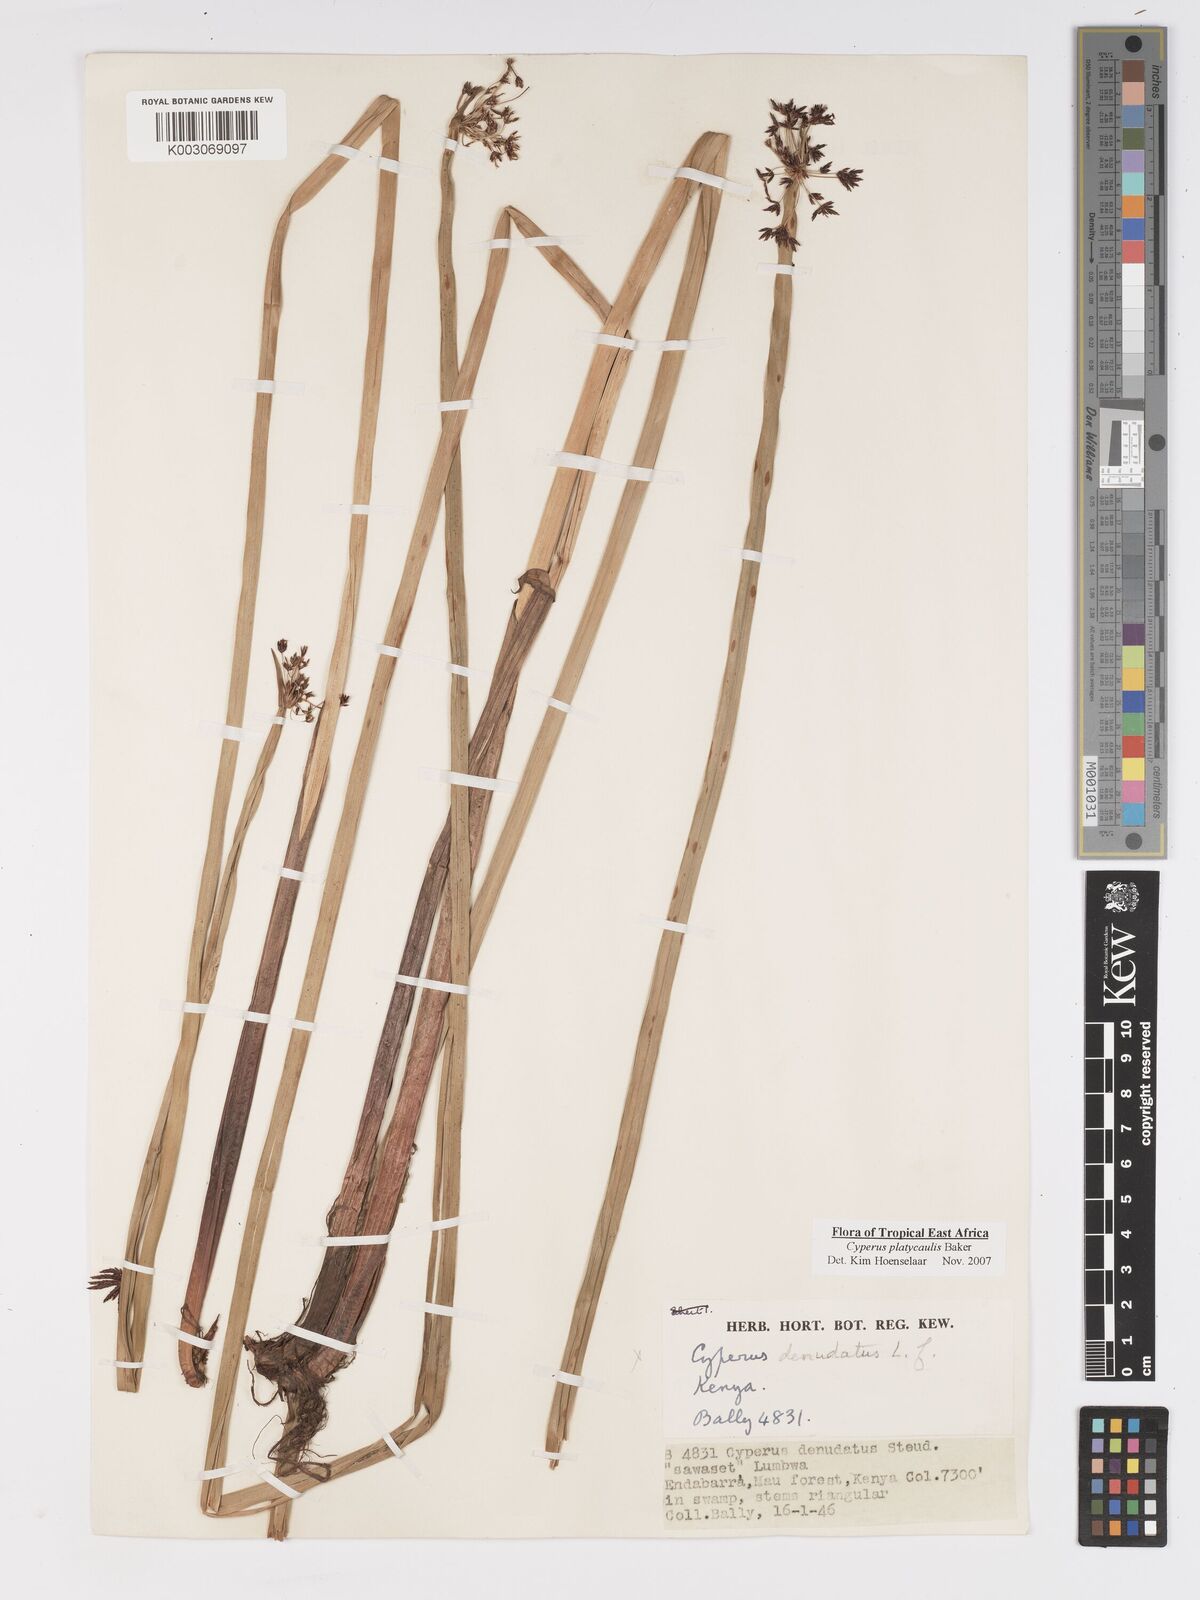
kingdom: Plantae
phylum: Tracheophyta
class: Liliopsida
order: Poales
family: Cyperaceae
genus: Cyperus
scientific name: Cyperus platycaulis
